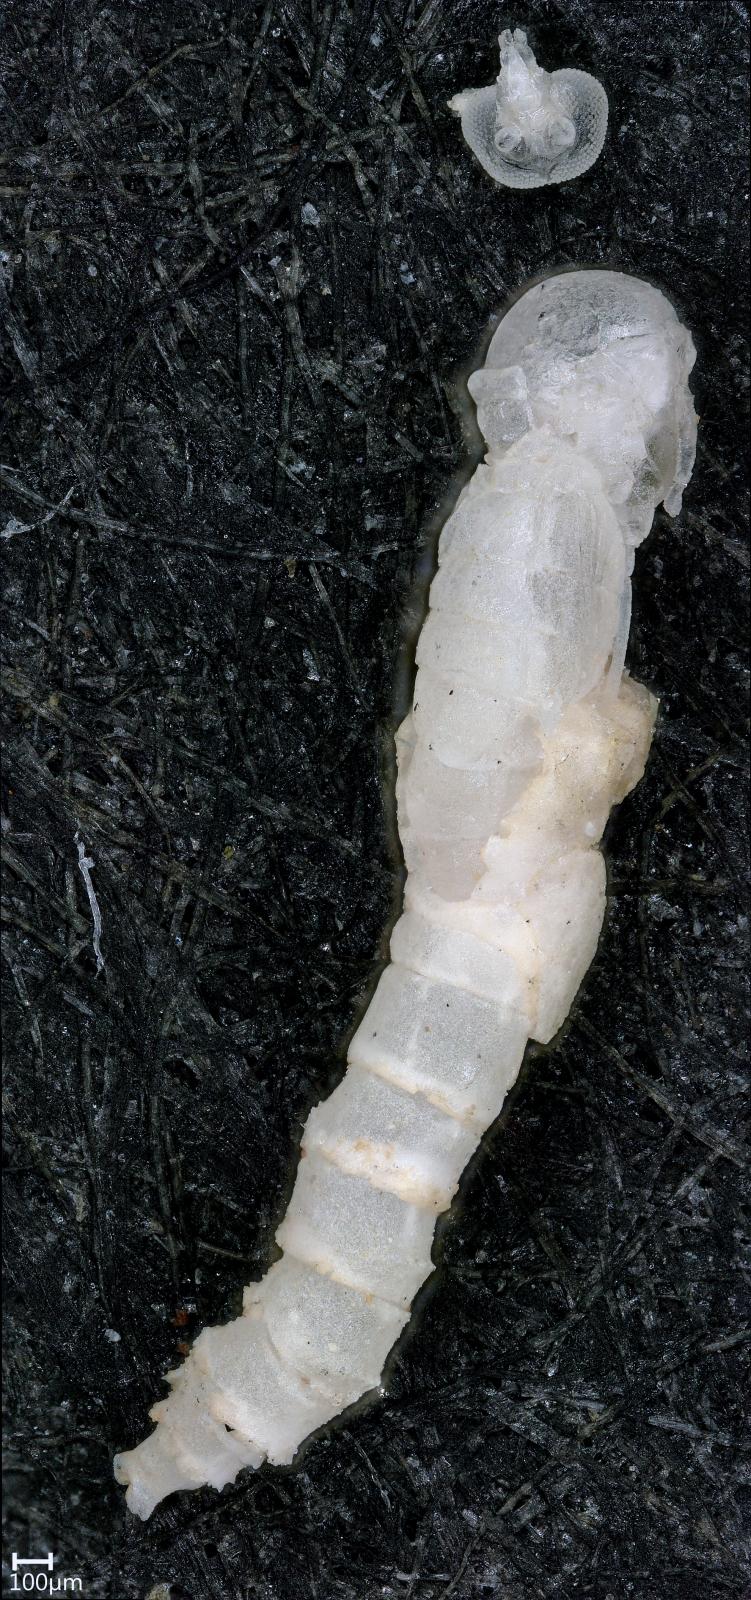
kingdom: Animalia
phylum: Arthropoda
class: Insecta
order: Diptera
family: Ceratopogonidae
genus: Dasyhelea
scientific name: Dasyhelea australia
